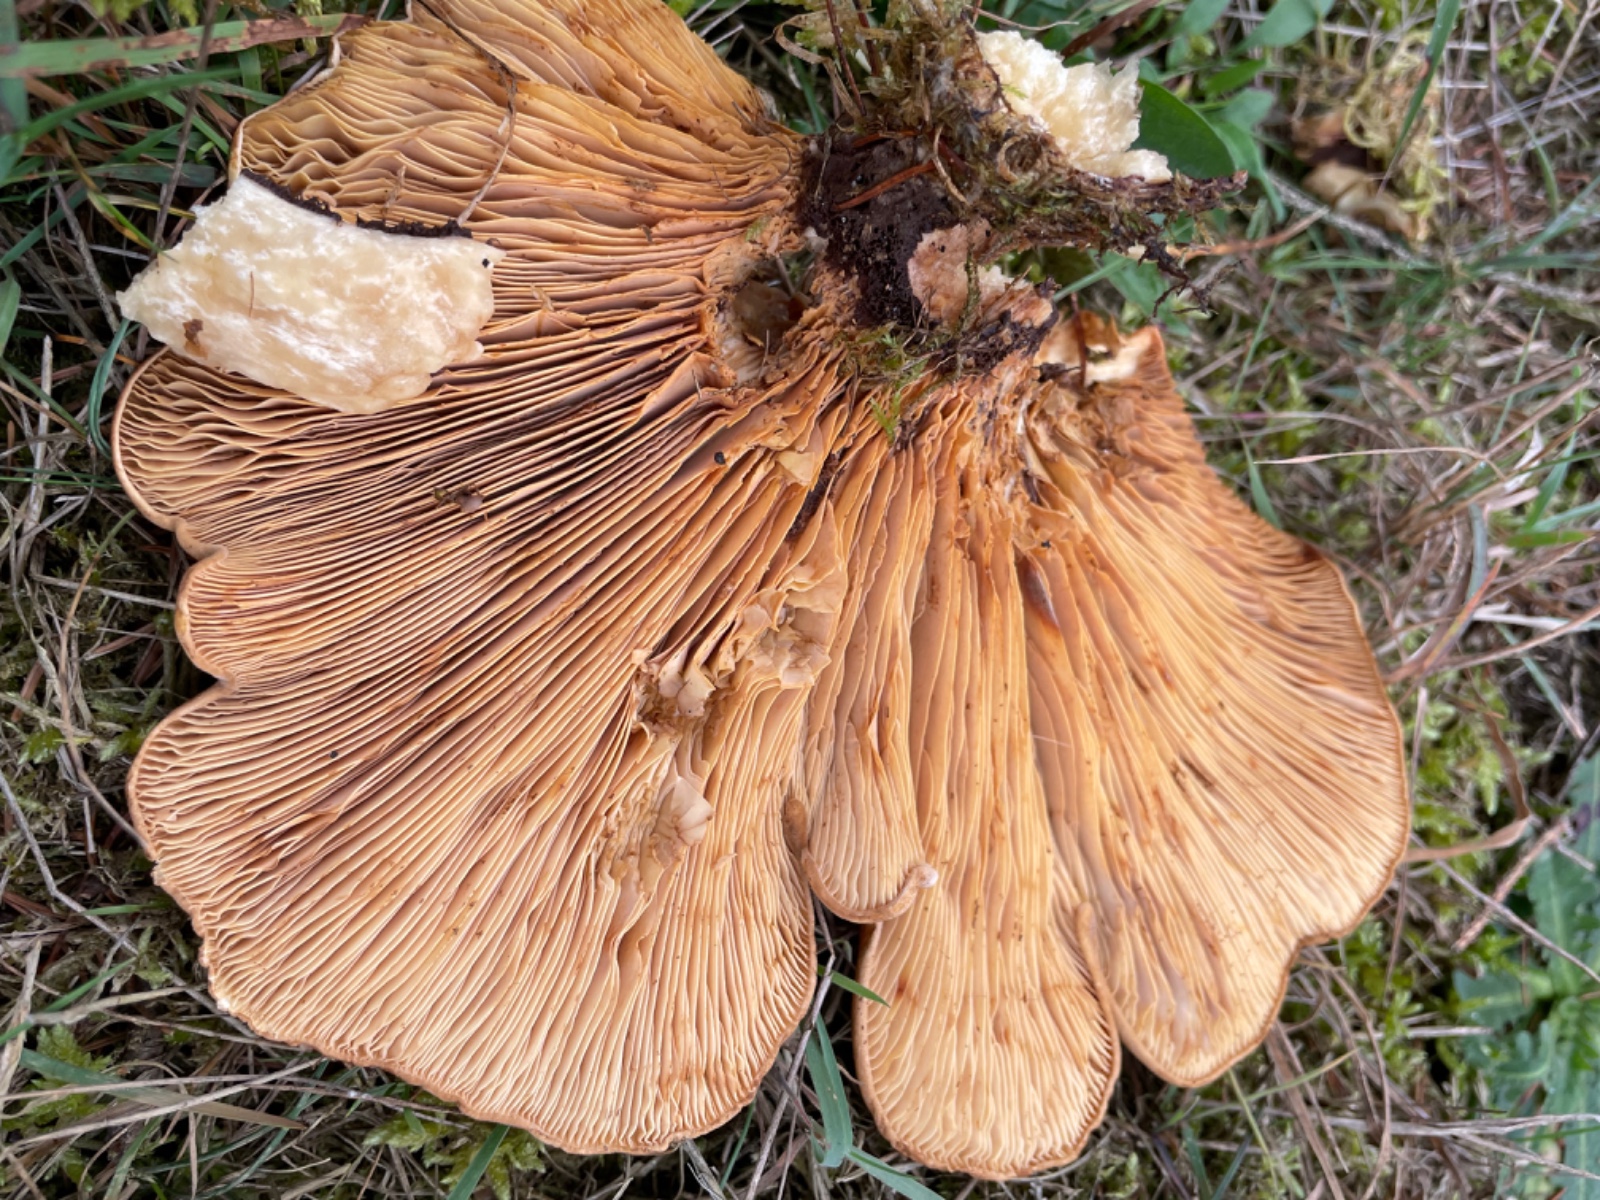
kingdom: Fungi
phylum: Basidiomycota
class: Agaricomycetes
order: Boletales
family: Tapinellaceae
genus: Tapinella
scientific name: Tapinella atrotomentosa
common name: sortfiltet viftesvamp
